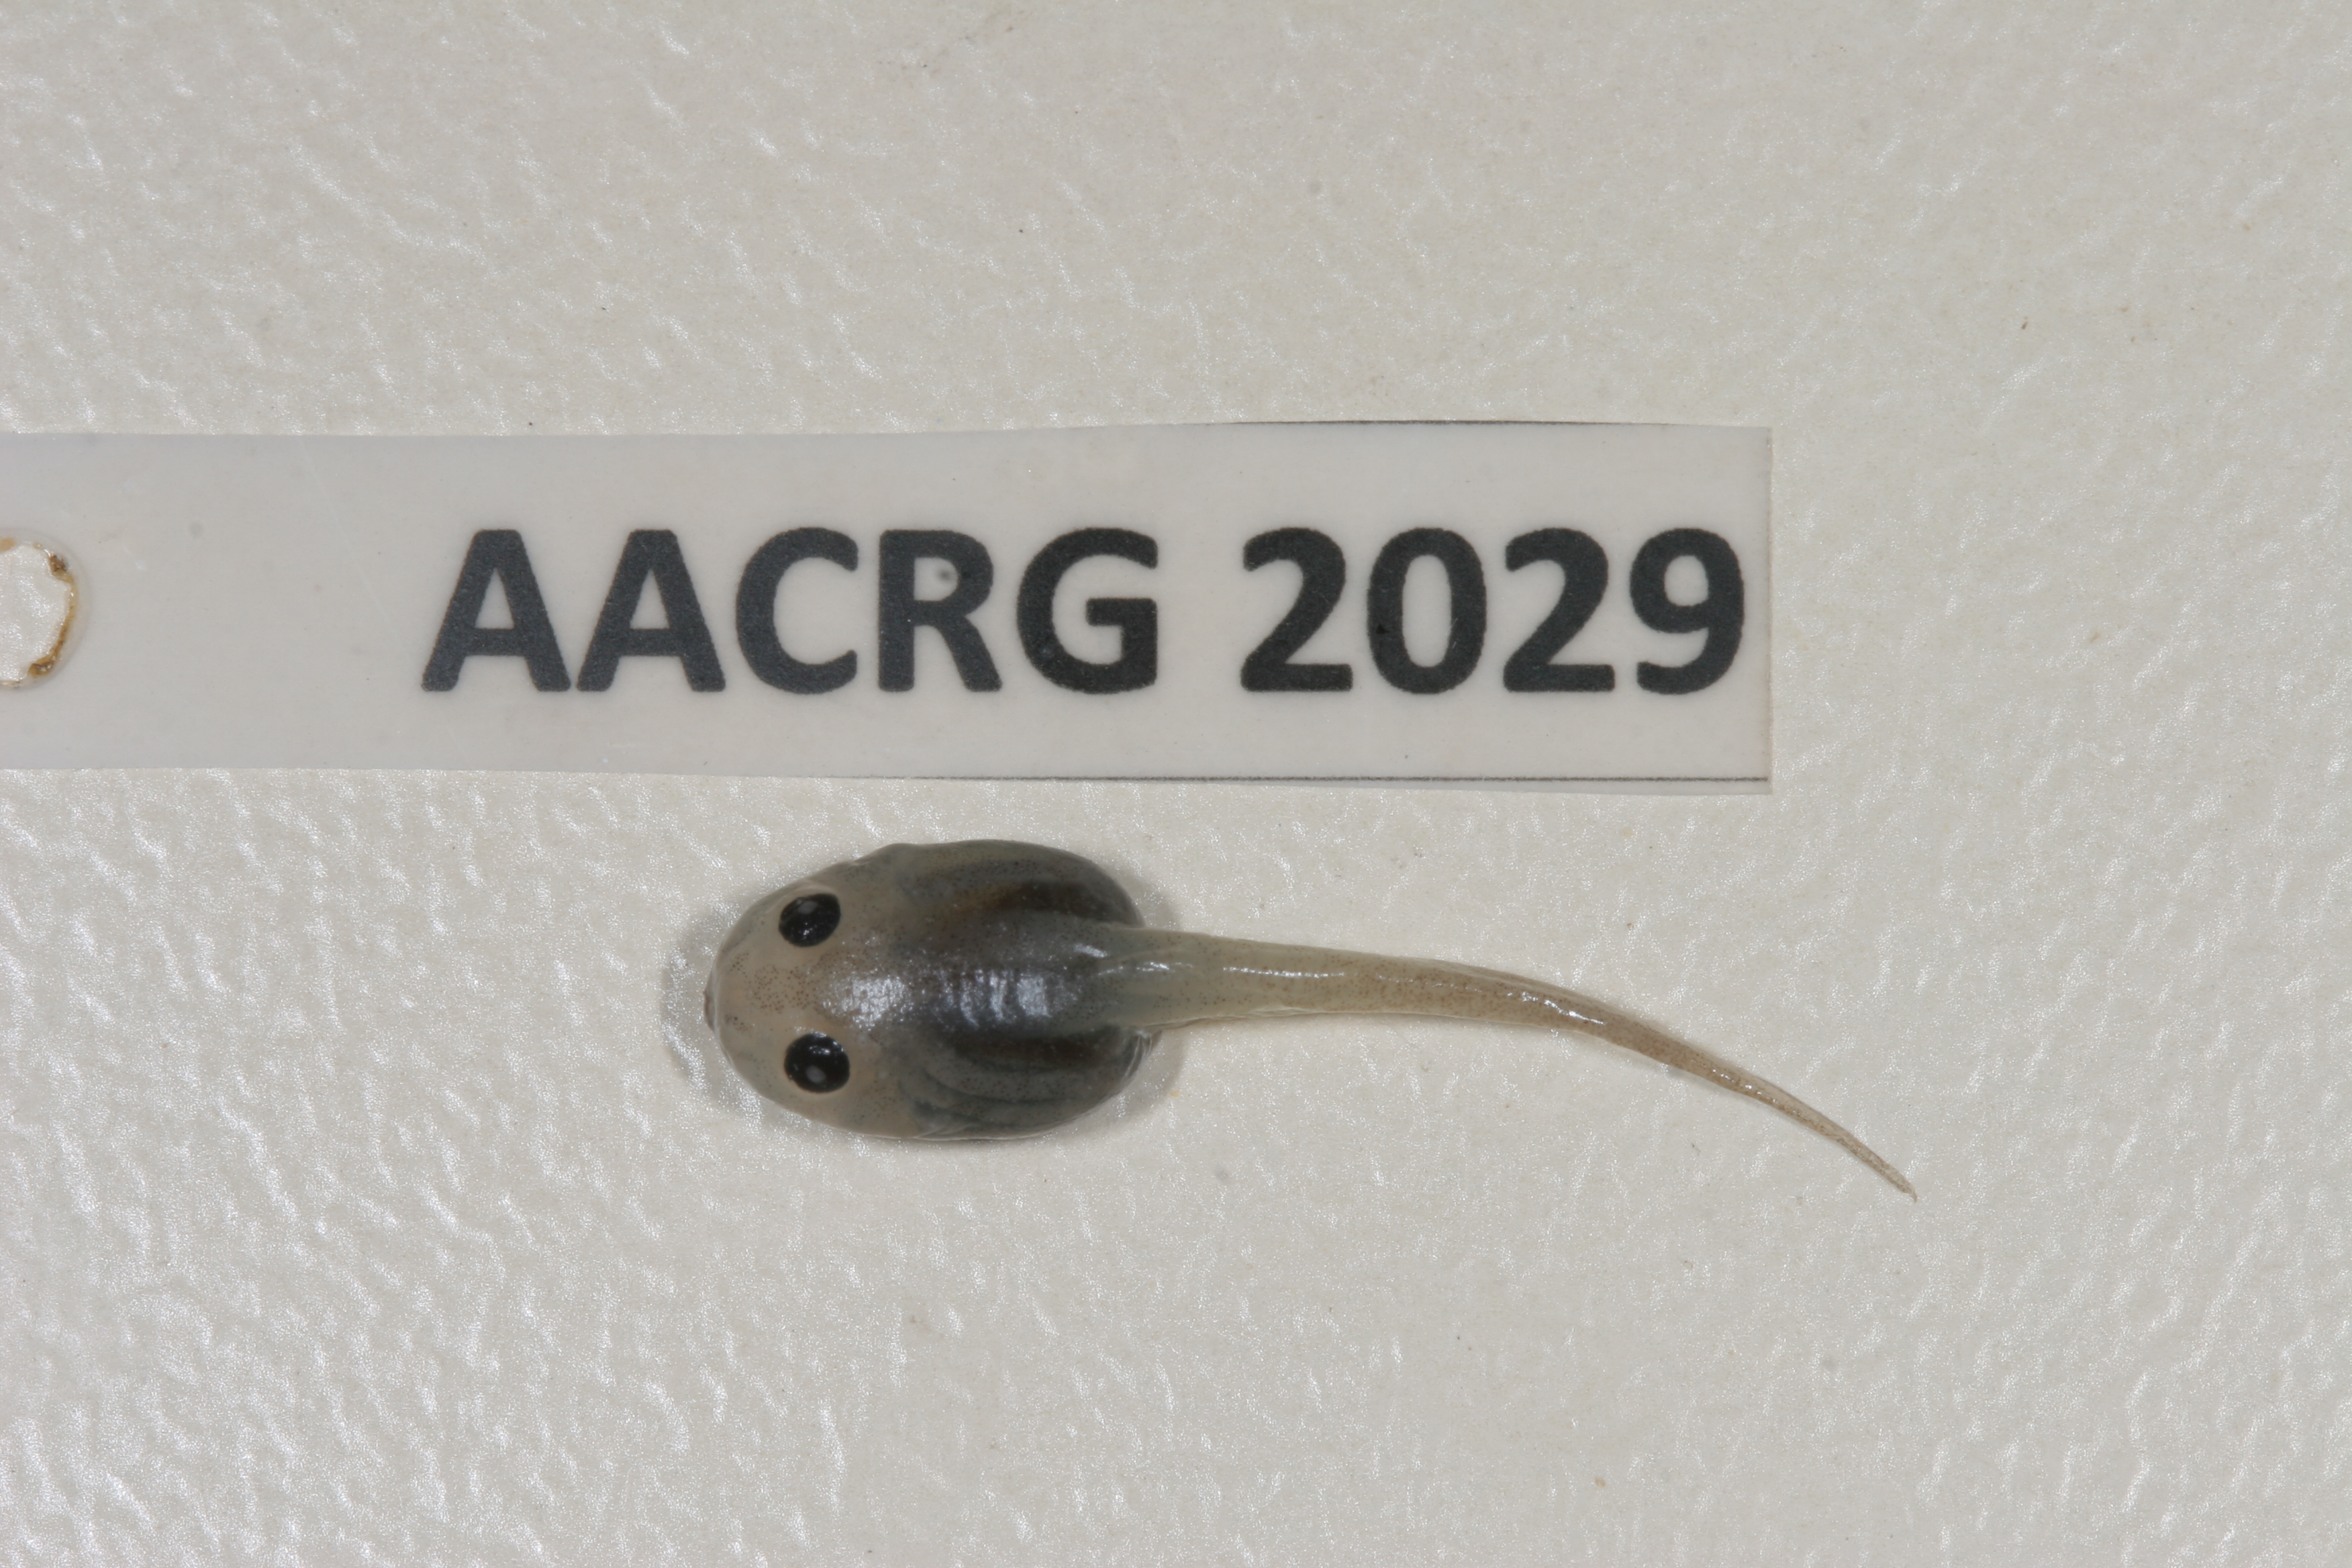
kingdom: Animalia
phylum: Chordata
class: Amphibia
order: Anura
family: Rhacophoridae
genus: Chiromantis
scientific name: Chiromantis xerampelina
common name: African gray treefrog
